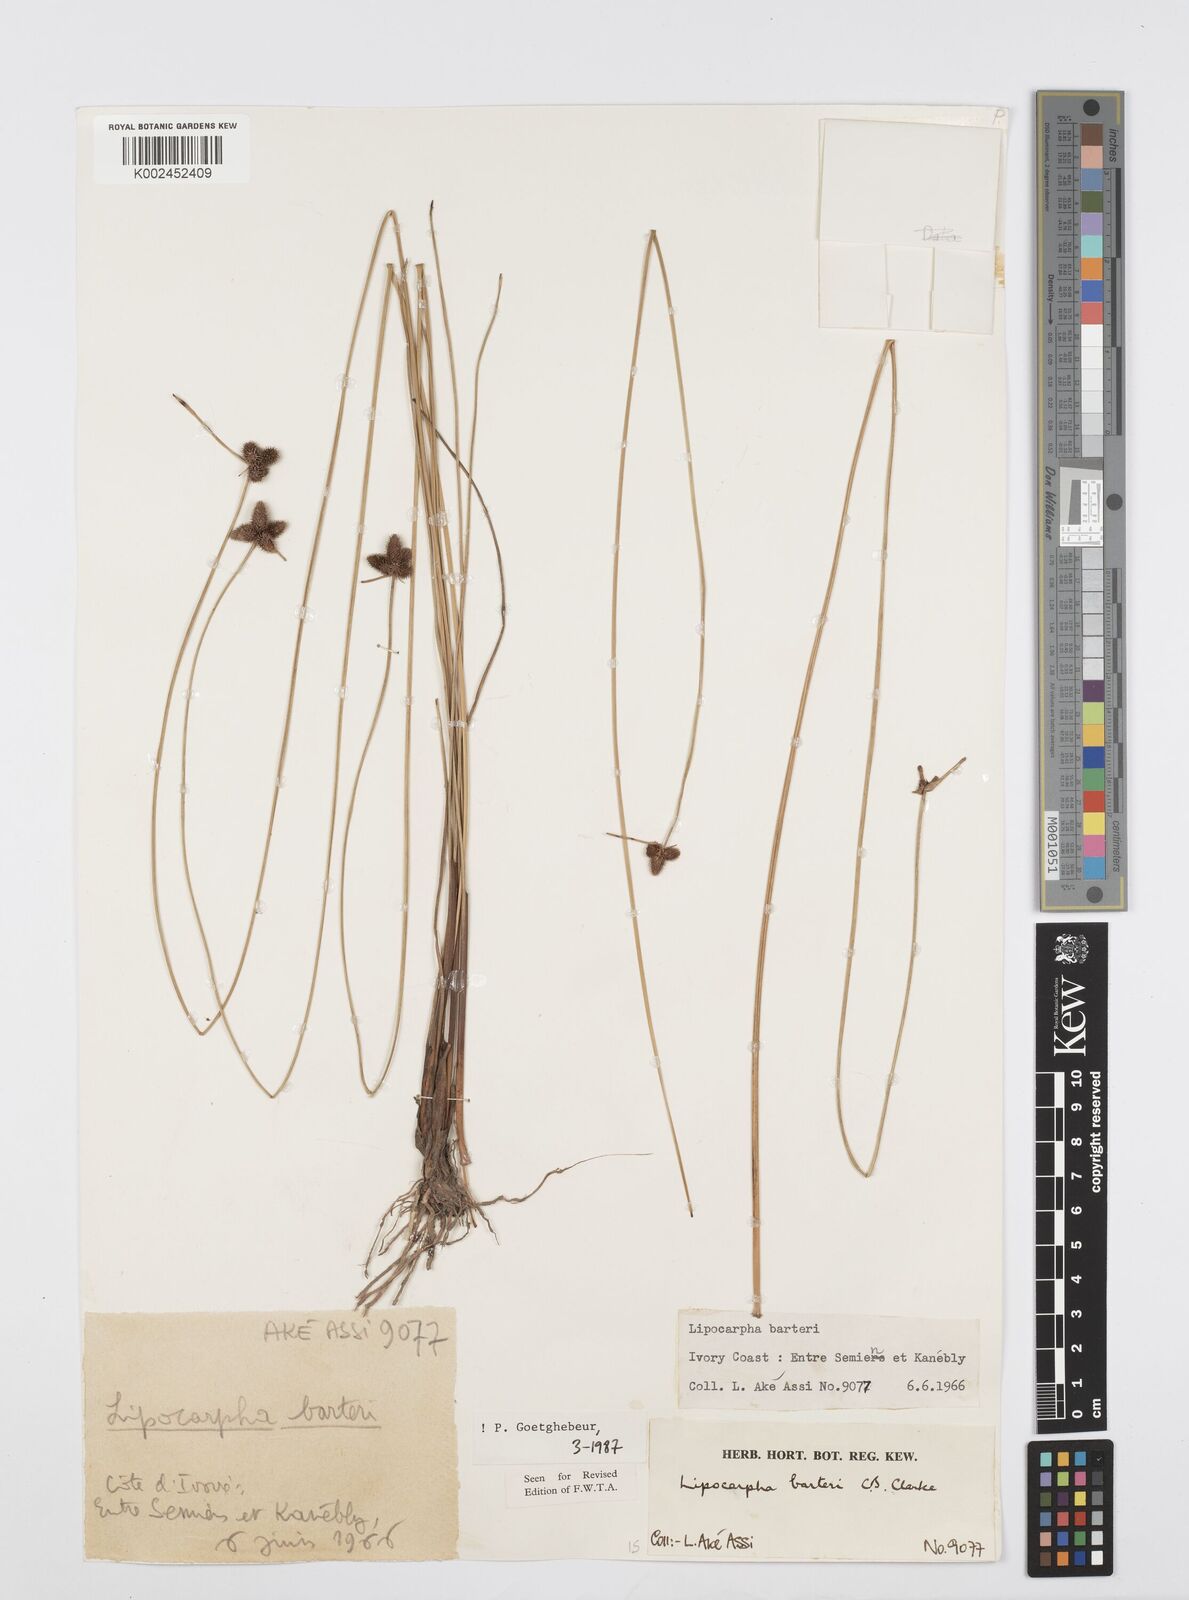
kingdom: Plantae
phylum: Tracheophyta
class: Liliopsida
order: Poales
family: Cyperaceae
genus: Cyperus
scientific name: Cyperus pustulatus
